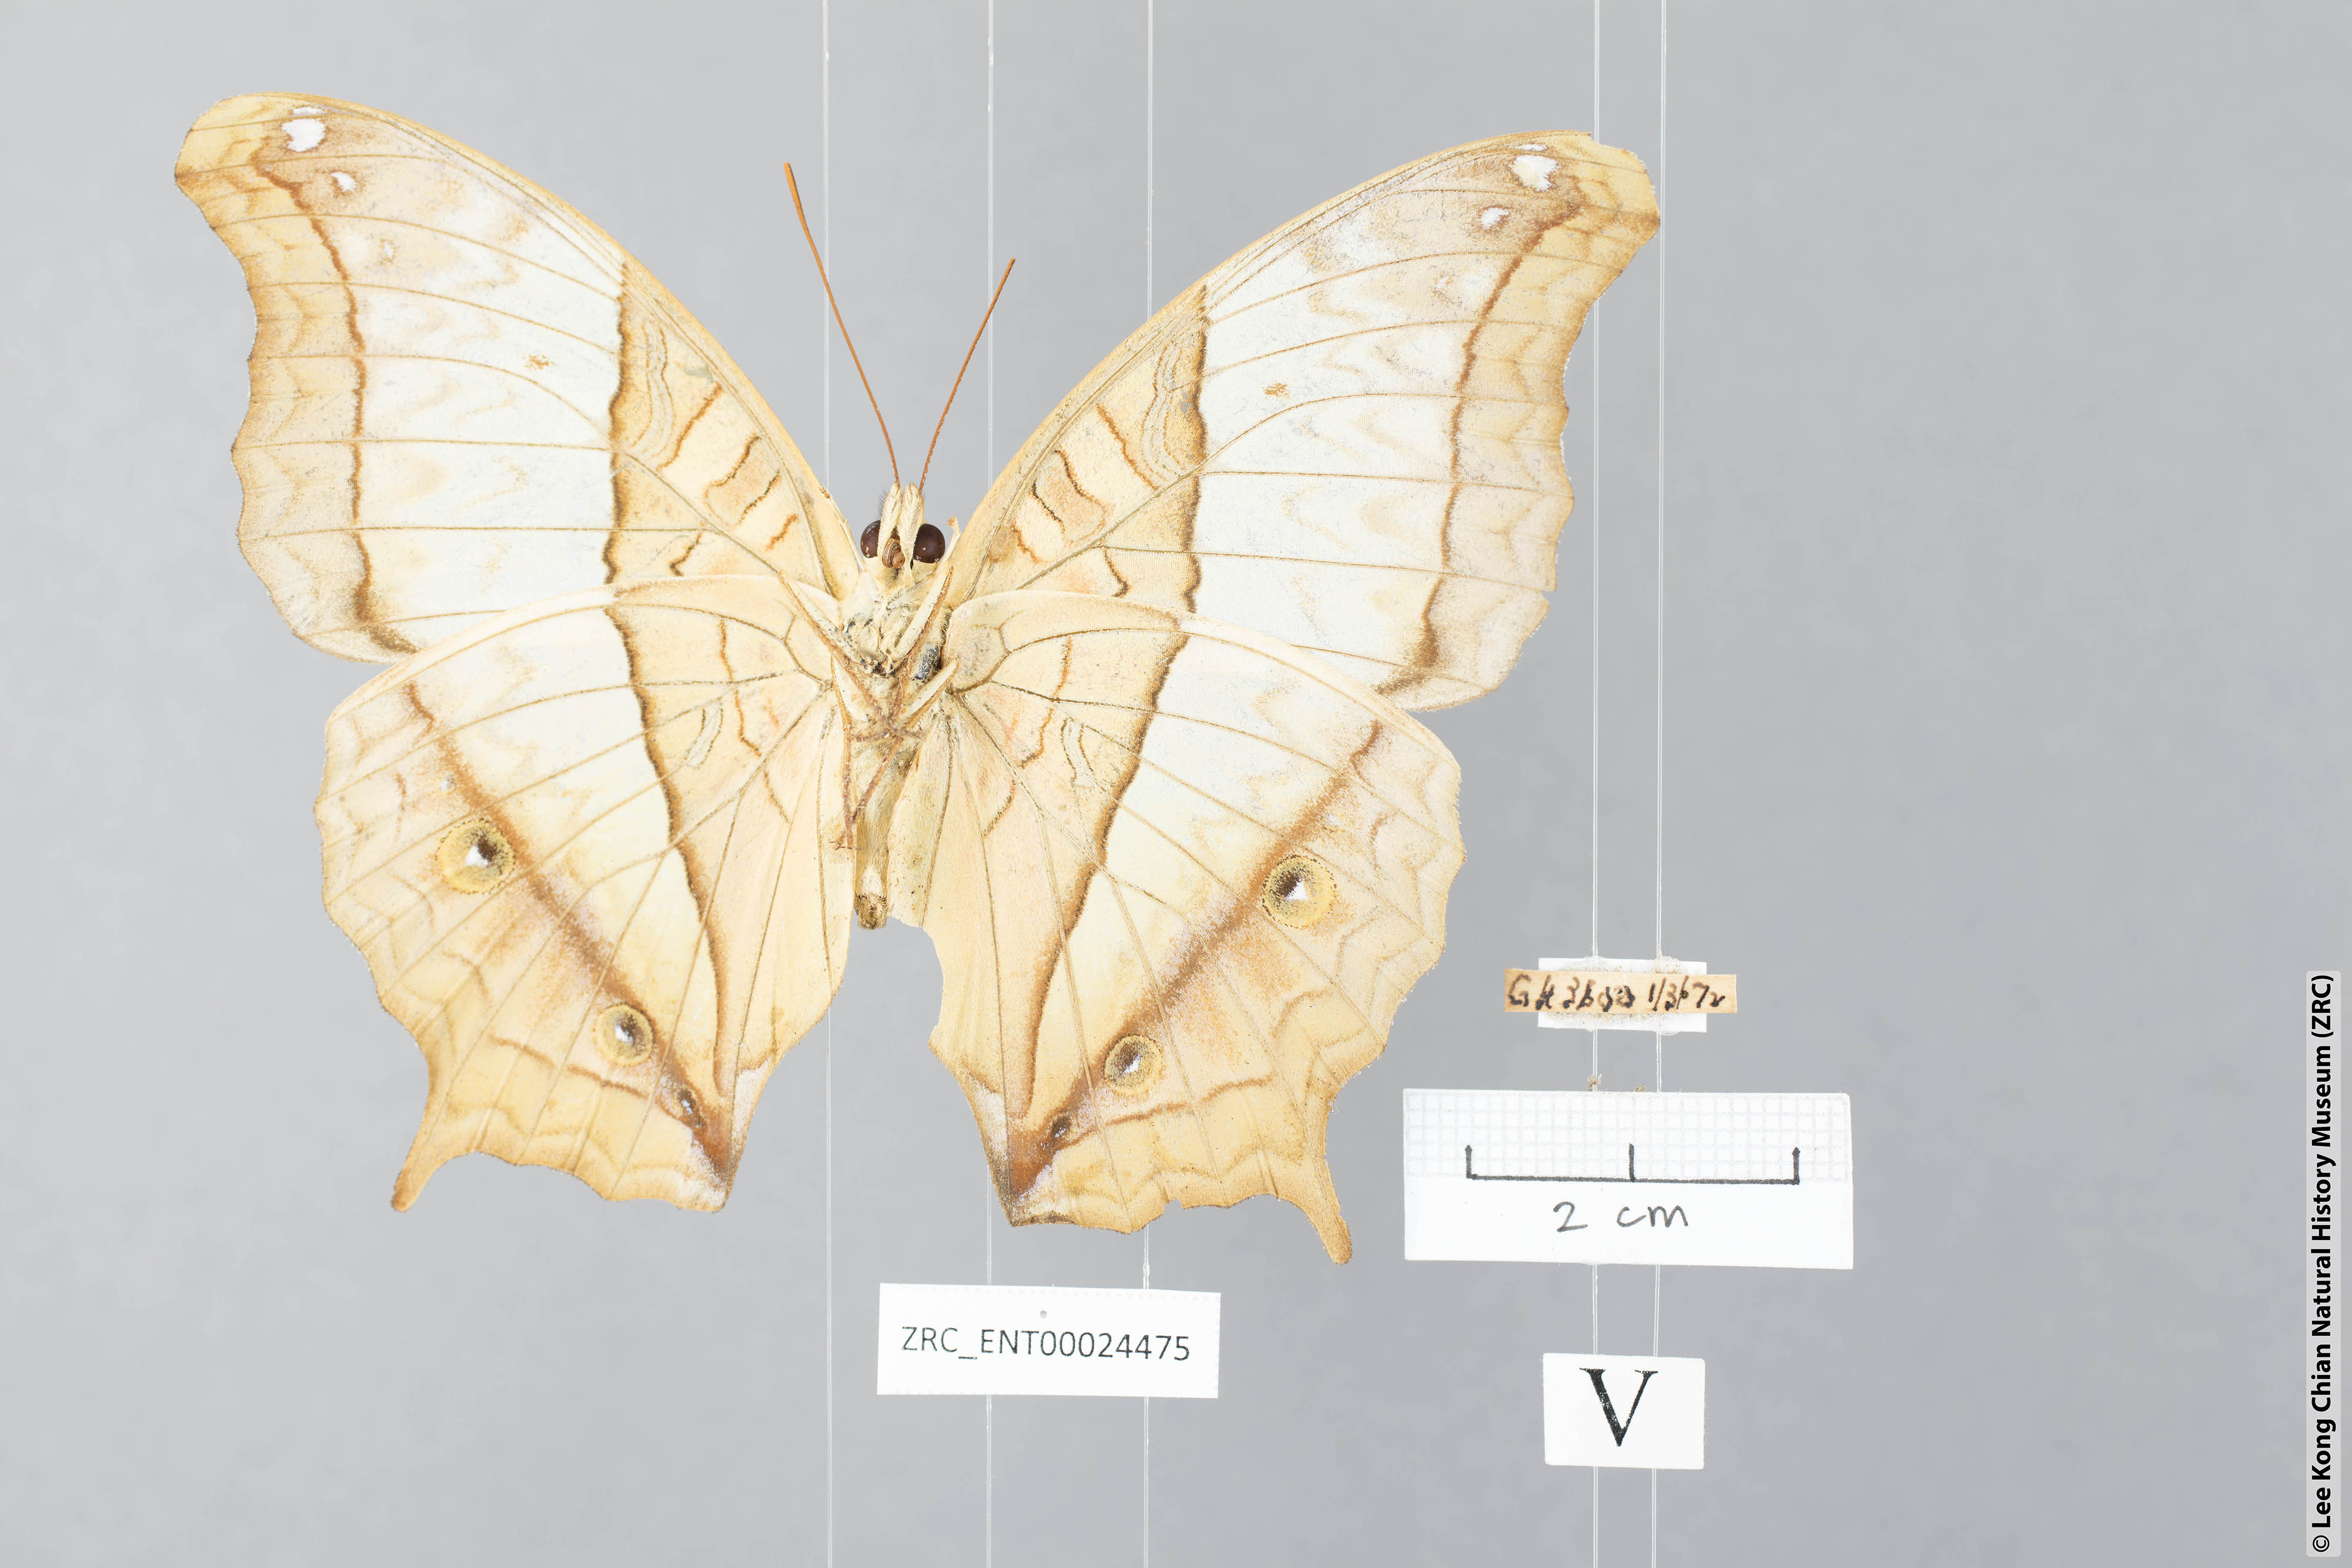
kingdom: Animalia
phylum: Arthropoda
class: Insecta
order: Lepidoptera
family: Nymphalidae
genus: Vindula
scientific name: Vindula erota
